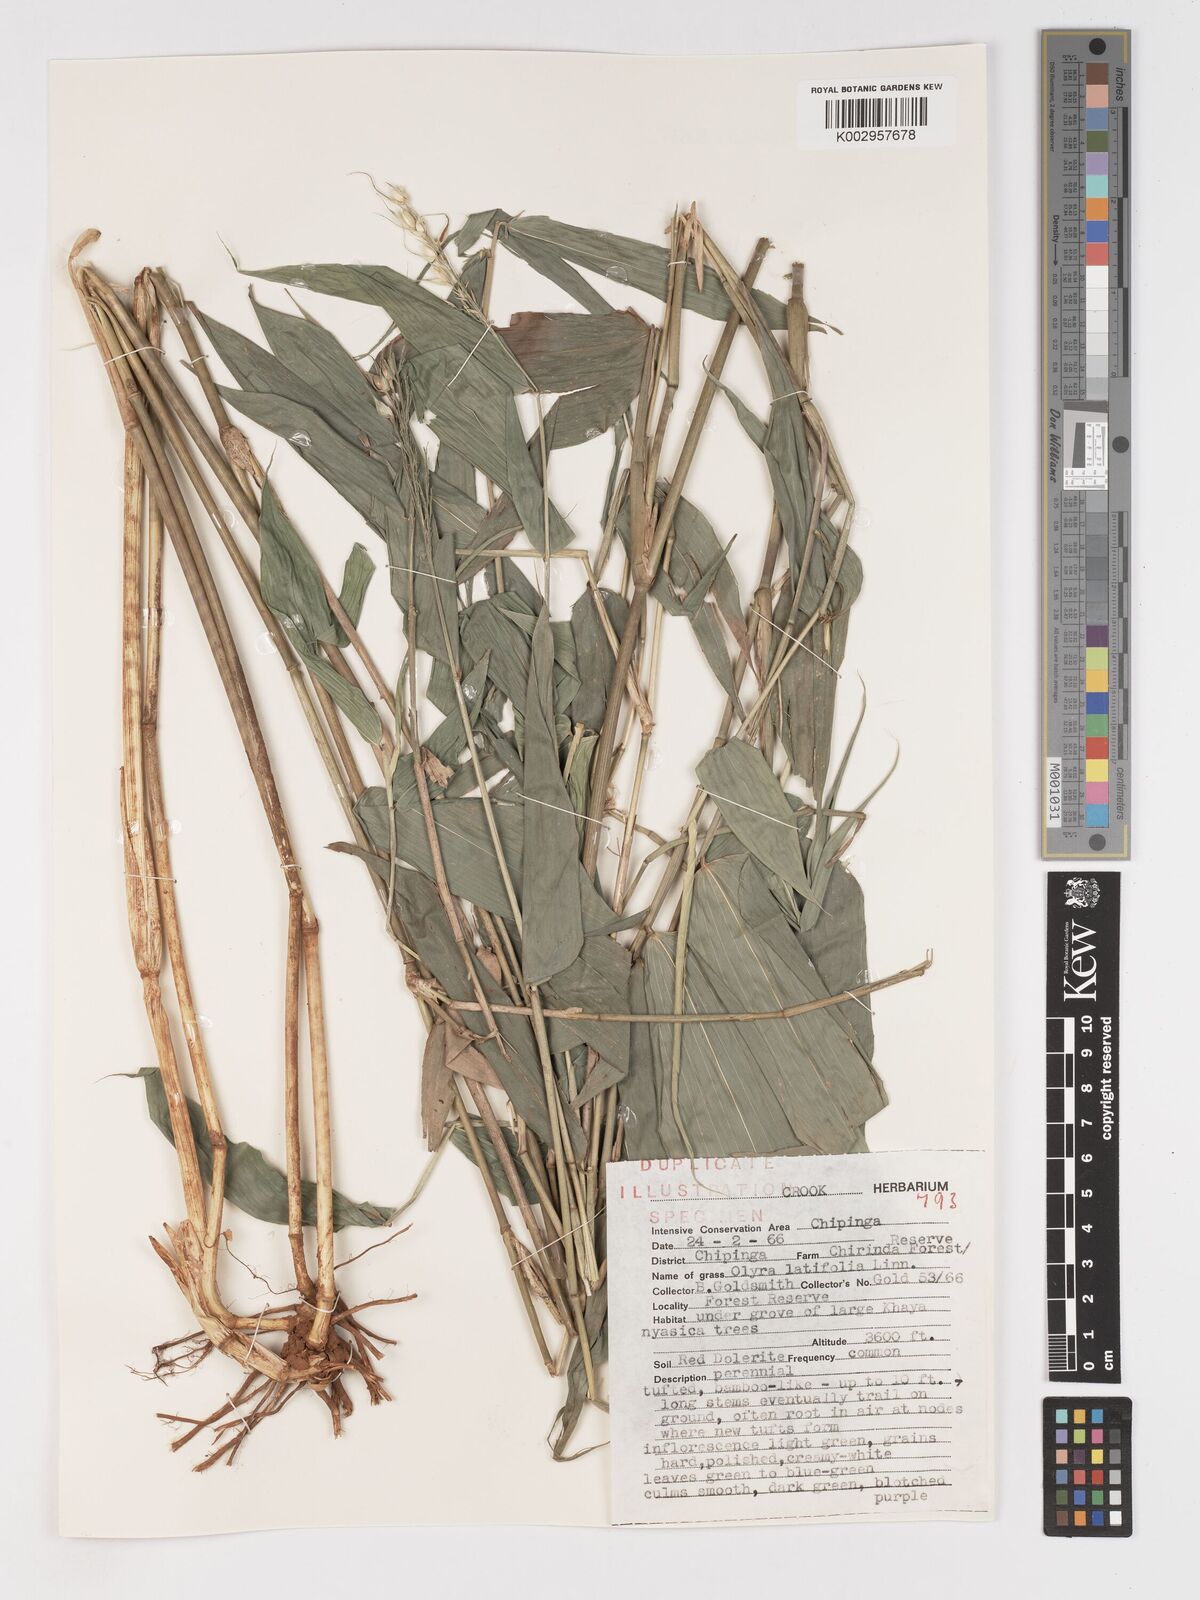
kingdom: Plantae
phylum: Tracheophyta
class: Liliopsida
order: Poales
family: Poaceae
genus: Olyra
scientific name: Olyra latifolia
